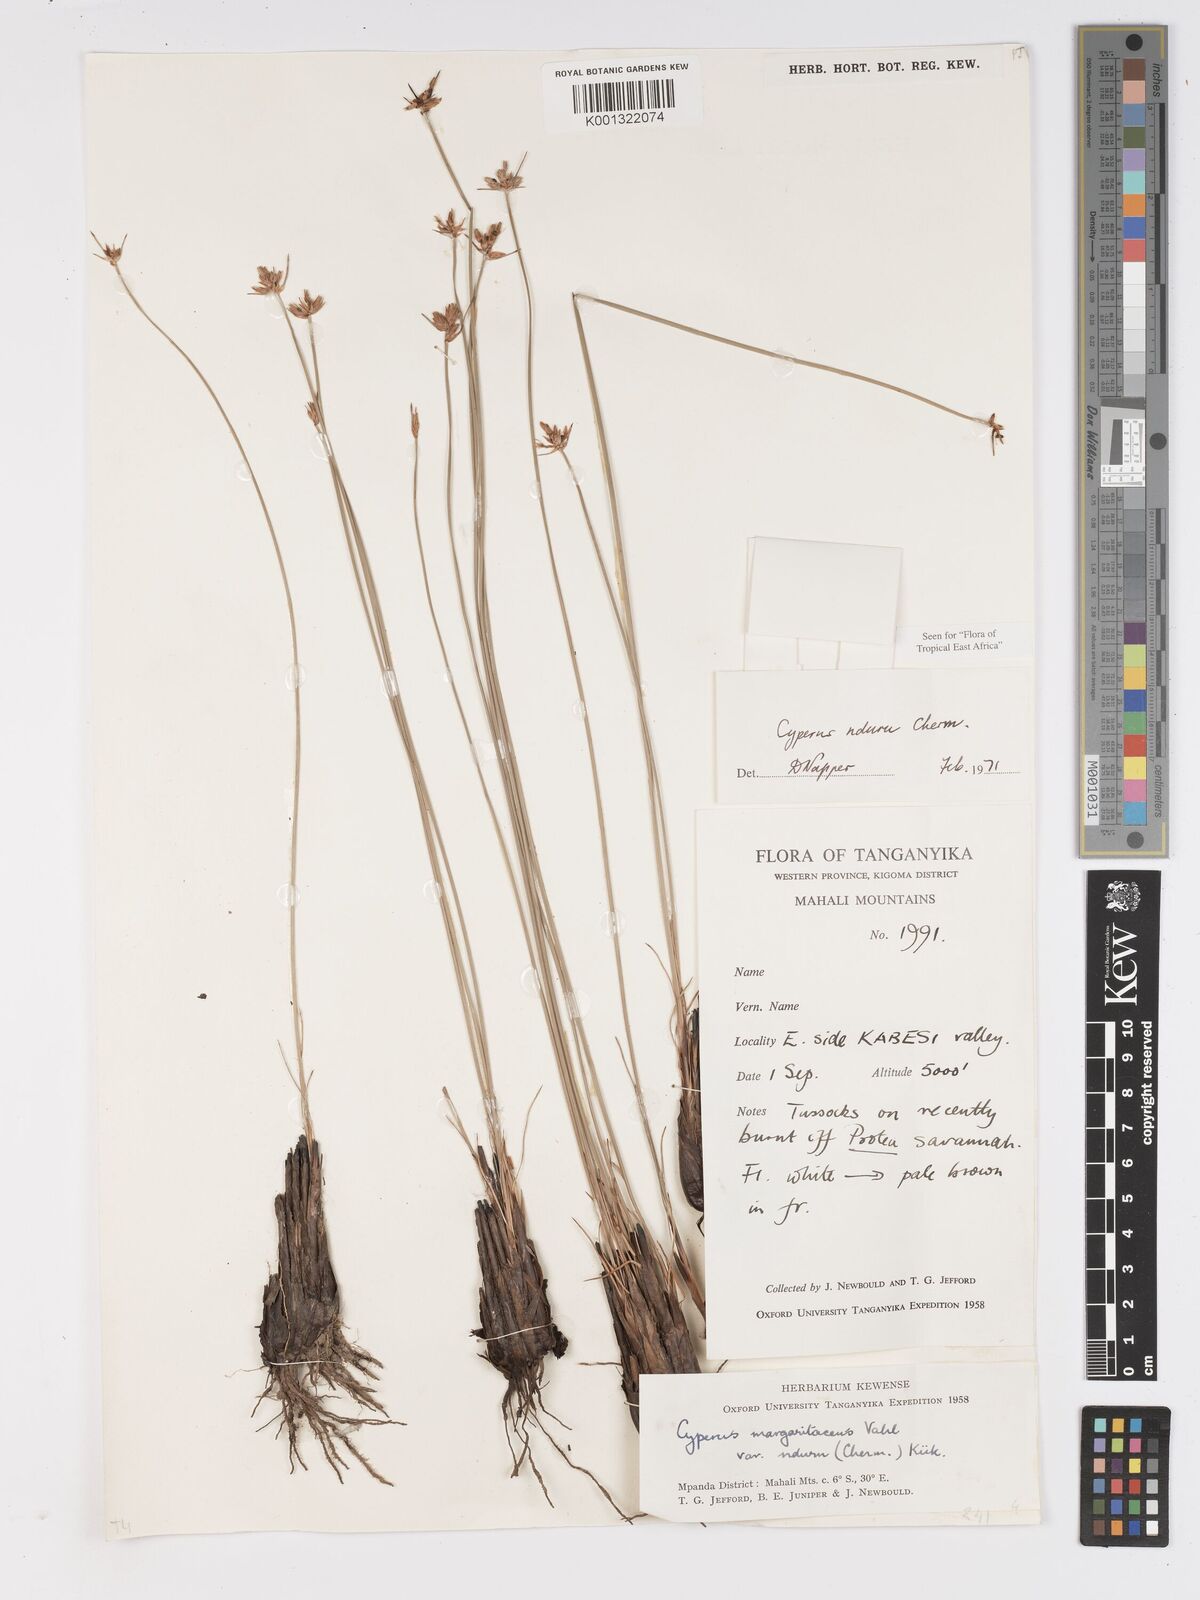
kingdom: Plantae
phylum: Tracheophyta
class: Liliopsida
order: Poales
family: Cyperaceae
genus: Cyperus
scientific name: Cyperus nduru
